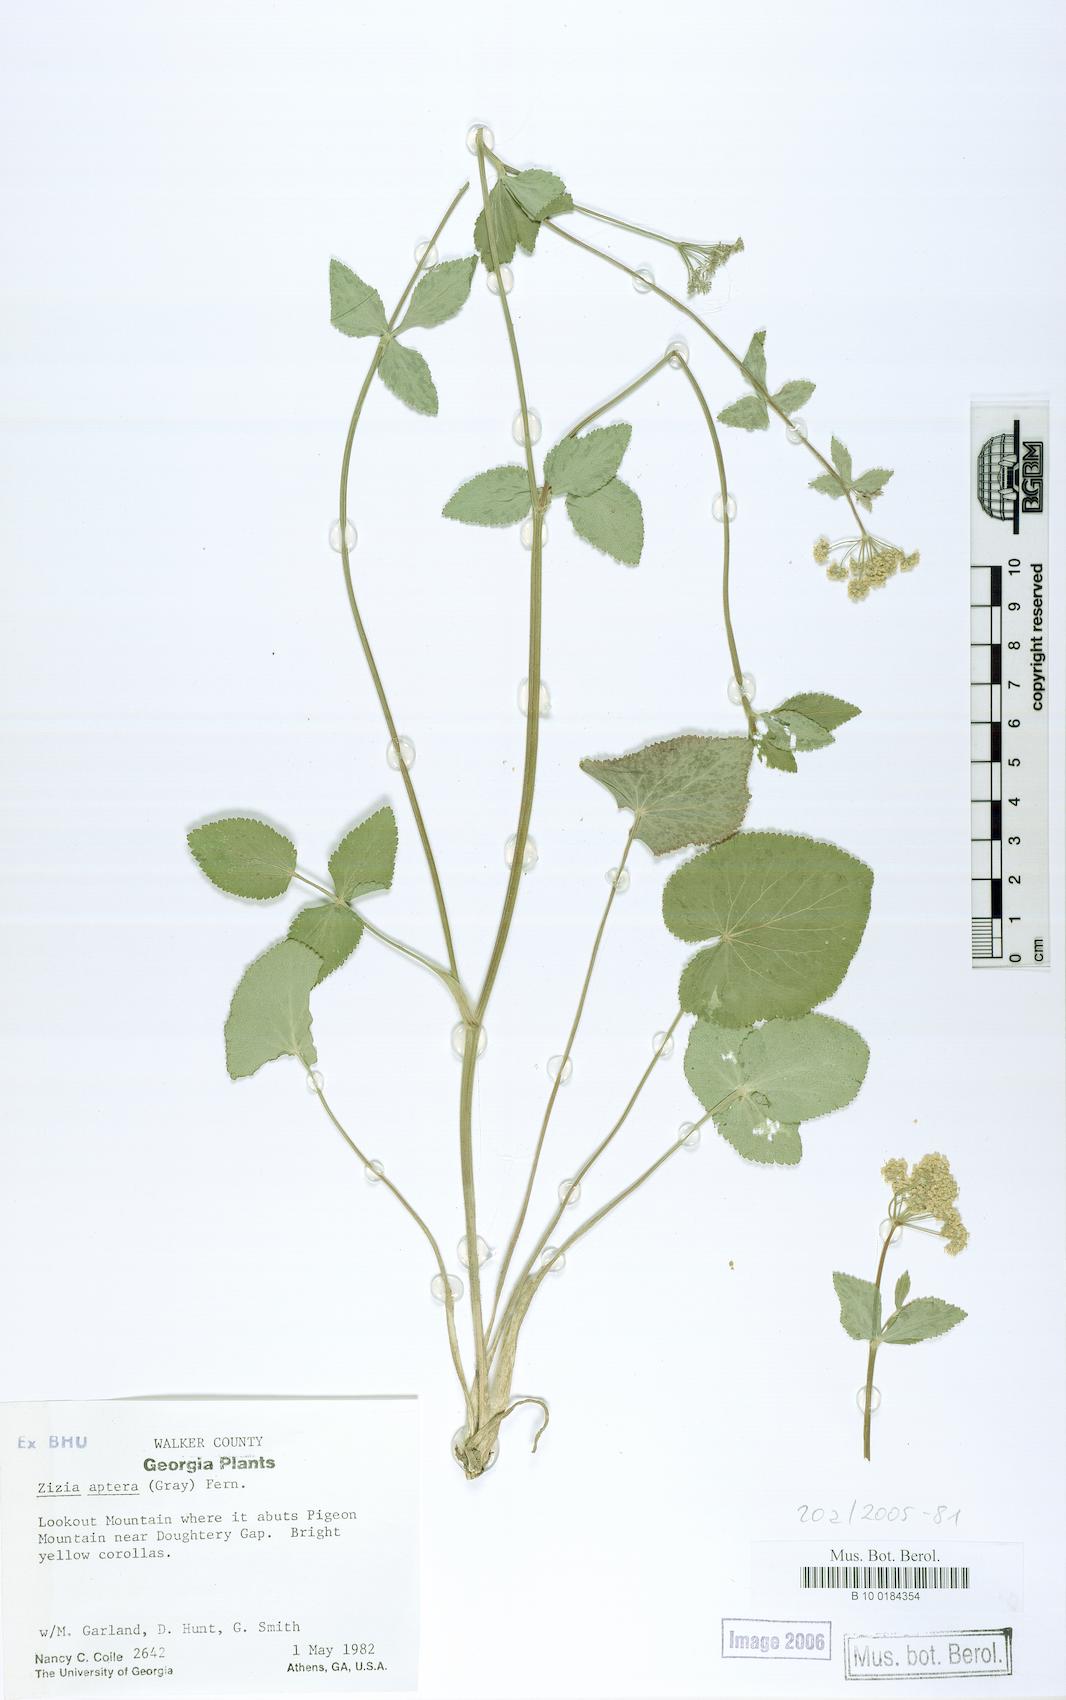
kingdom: Plantae
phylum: Tracheophyta
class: Magnoliopsida
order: Apiales
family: Apiaceae
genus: Zizia
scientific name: Zizia aptera
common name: Heart-leaved alexanders
